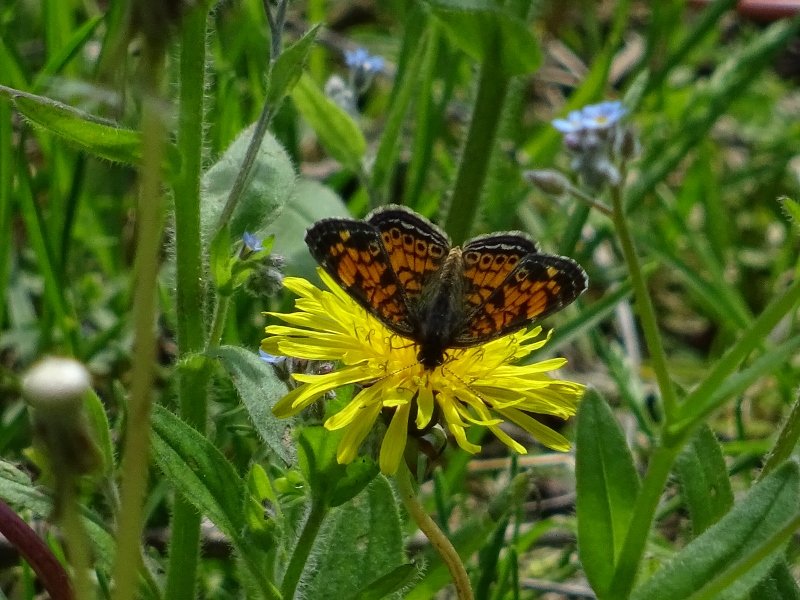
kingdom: Animalia
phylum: Arthropoda
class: Insecta
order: Lepidoptera
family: Nymphalidae
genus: Phyciodes
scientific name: Phyciodes tharos
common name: Pearl Crescent
